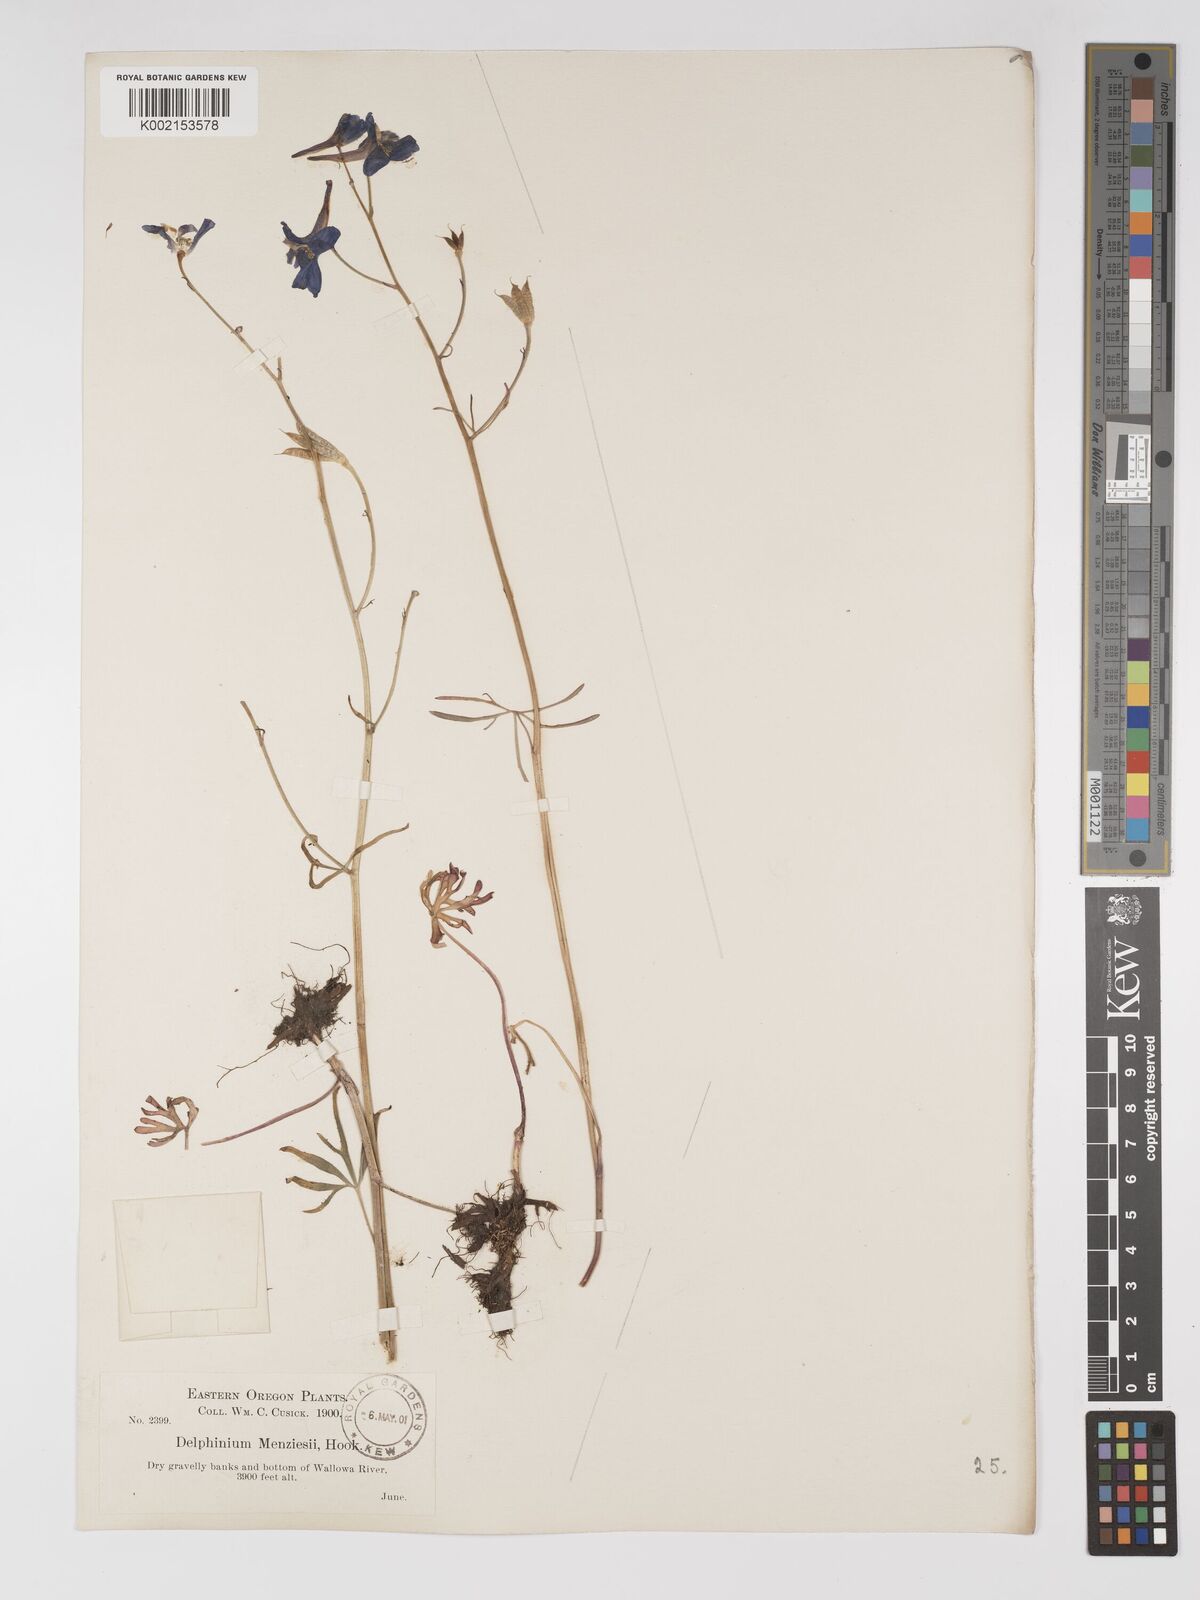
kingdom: Plantae
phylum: Tracheophyta
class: Magnoliopsida
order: Ranunculales
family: Ranunculaceae
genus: Delphinium
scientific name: Delphinium bicolor
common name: Low larkspur
